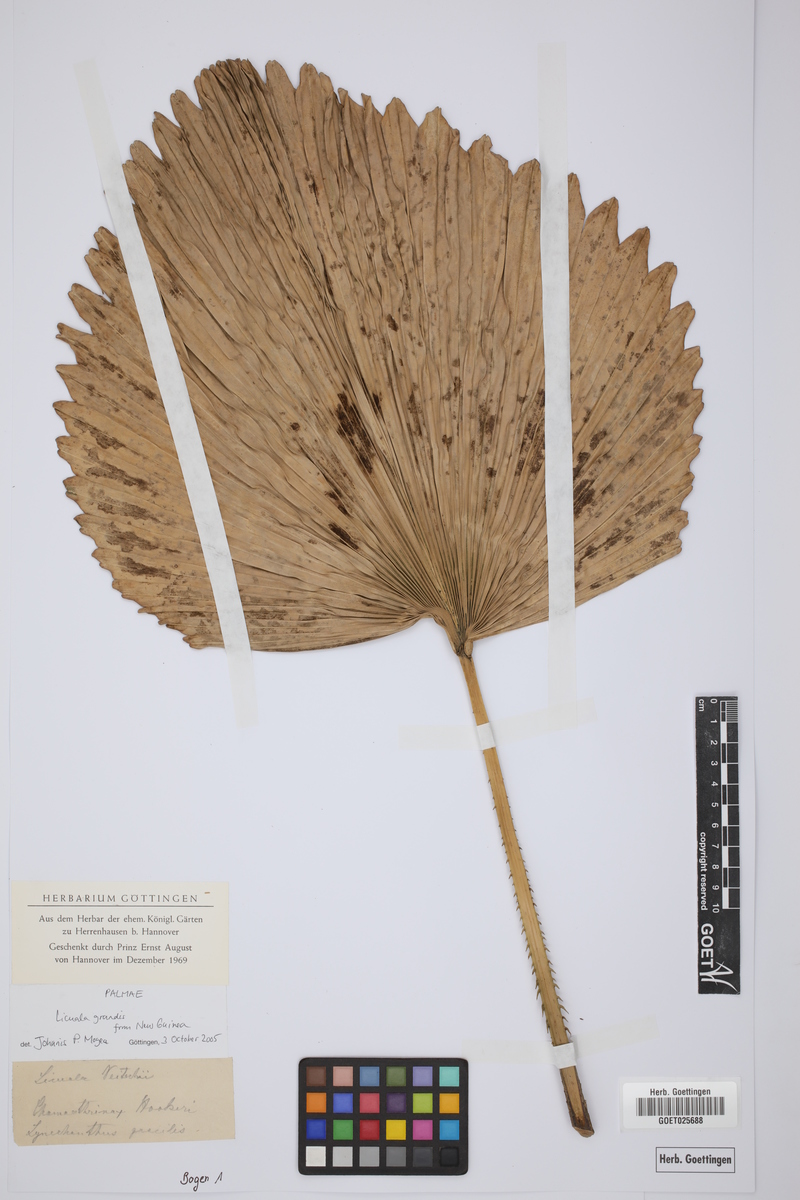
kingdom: Plantae
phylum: Tracheophyta
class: Liliopsida
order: Arecales
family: Arecaceae
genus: Licuala
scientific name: Licuala grandis
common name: Ruffled fan palm
